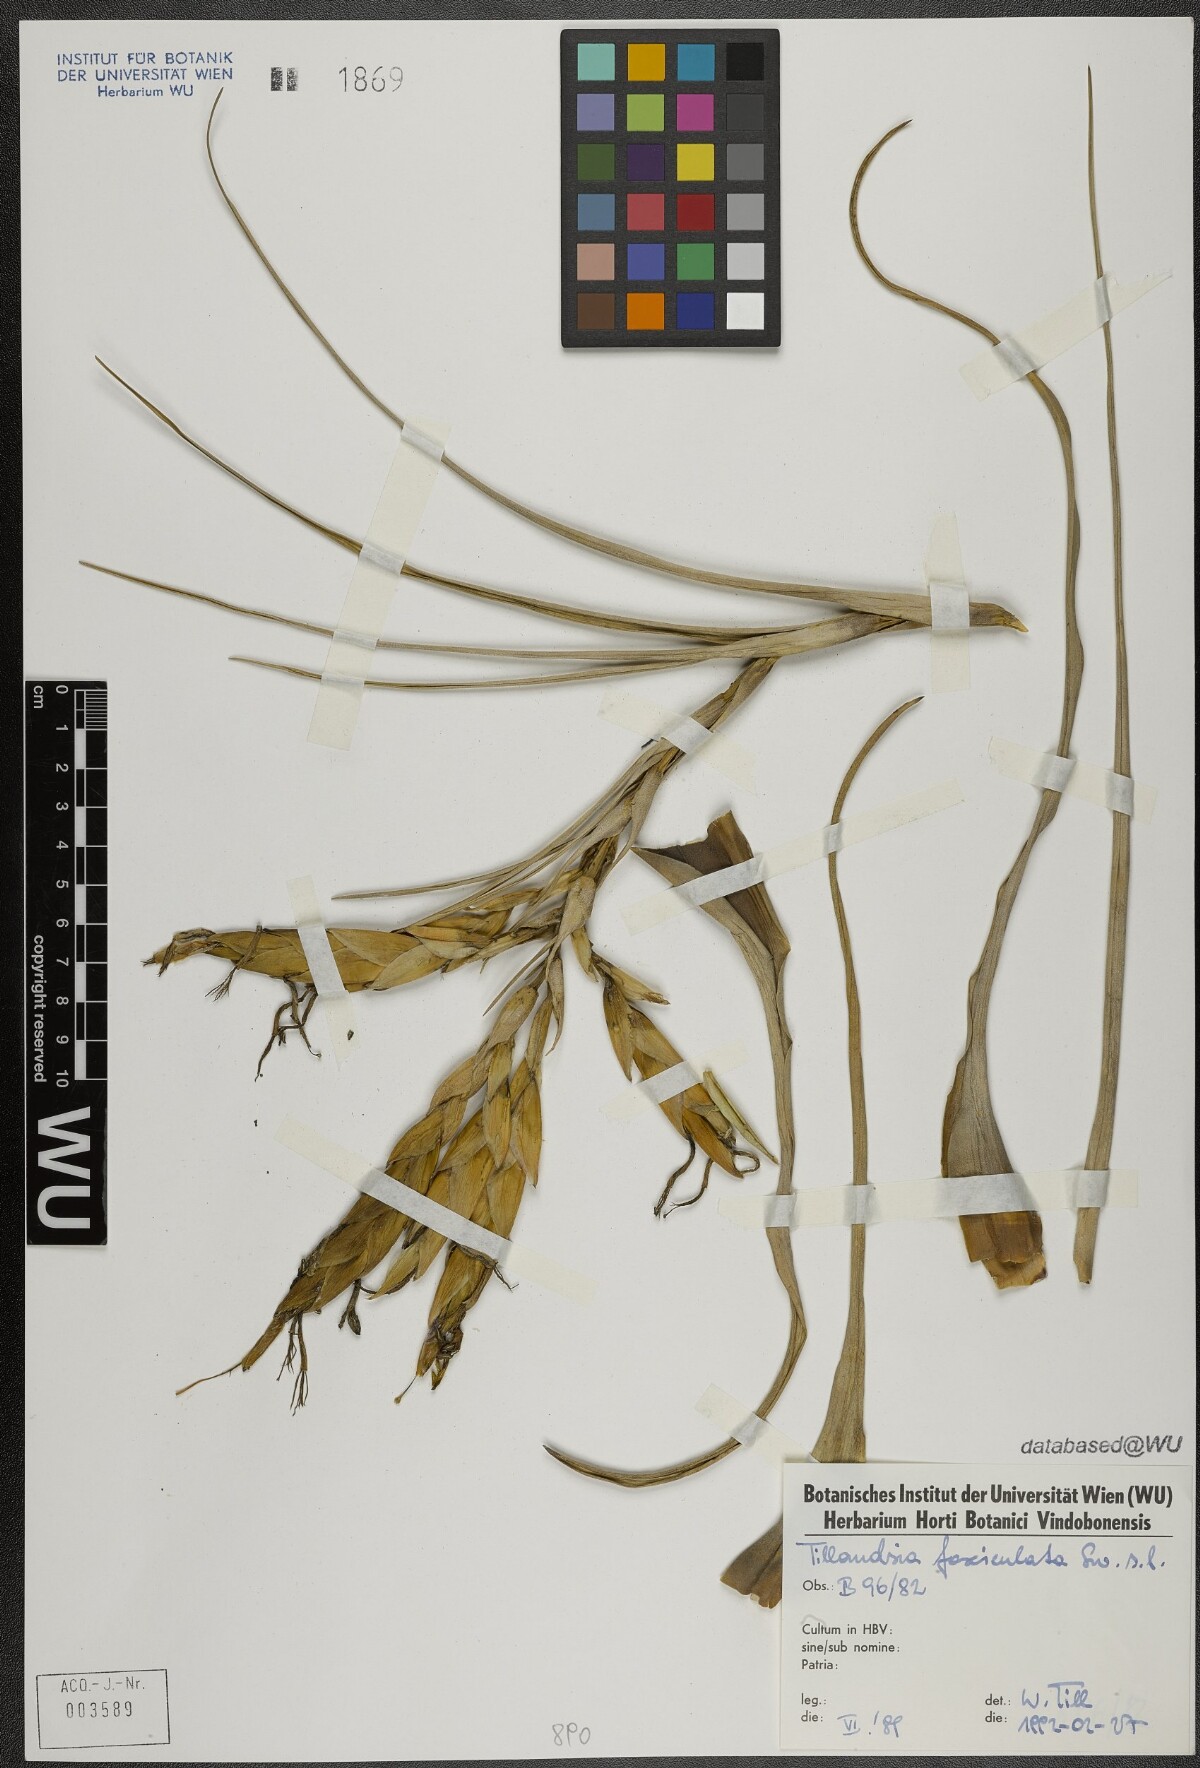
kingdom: Plantae
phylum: Tracheophyta
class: Liliopsida
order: Poales
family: Bromeliaceae
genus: Tillandsia
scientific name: Tillandsia fasciculata
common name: Giant airplant
